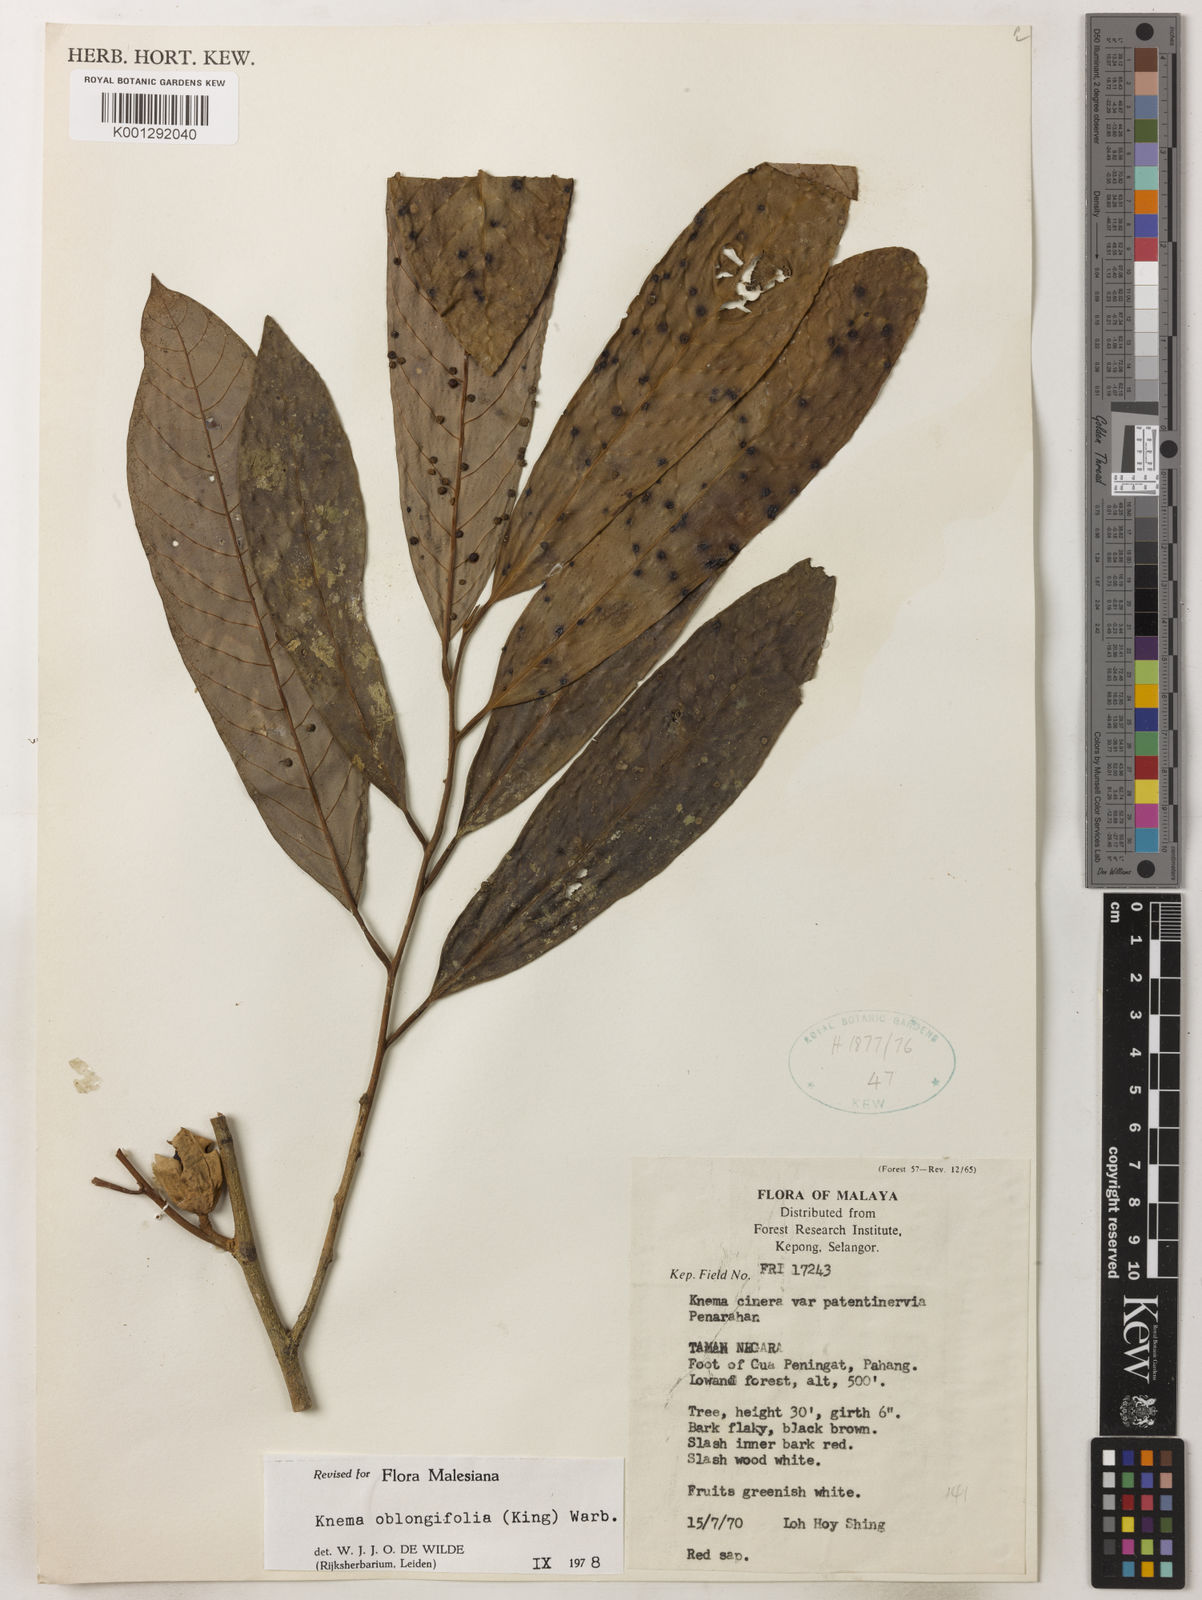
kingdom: Plantae
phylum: Tracheophyta
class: Magnoliopsida
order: Magnoliales
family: Myristicaceae
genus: Knema
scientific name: Knema oblongifolia
